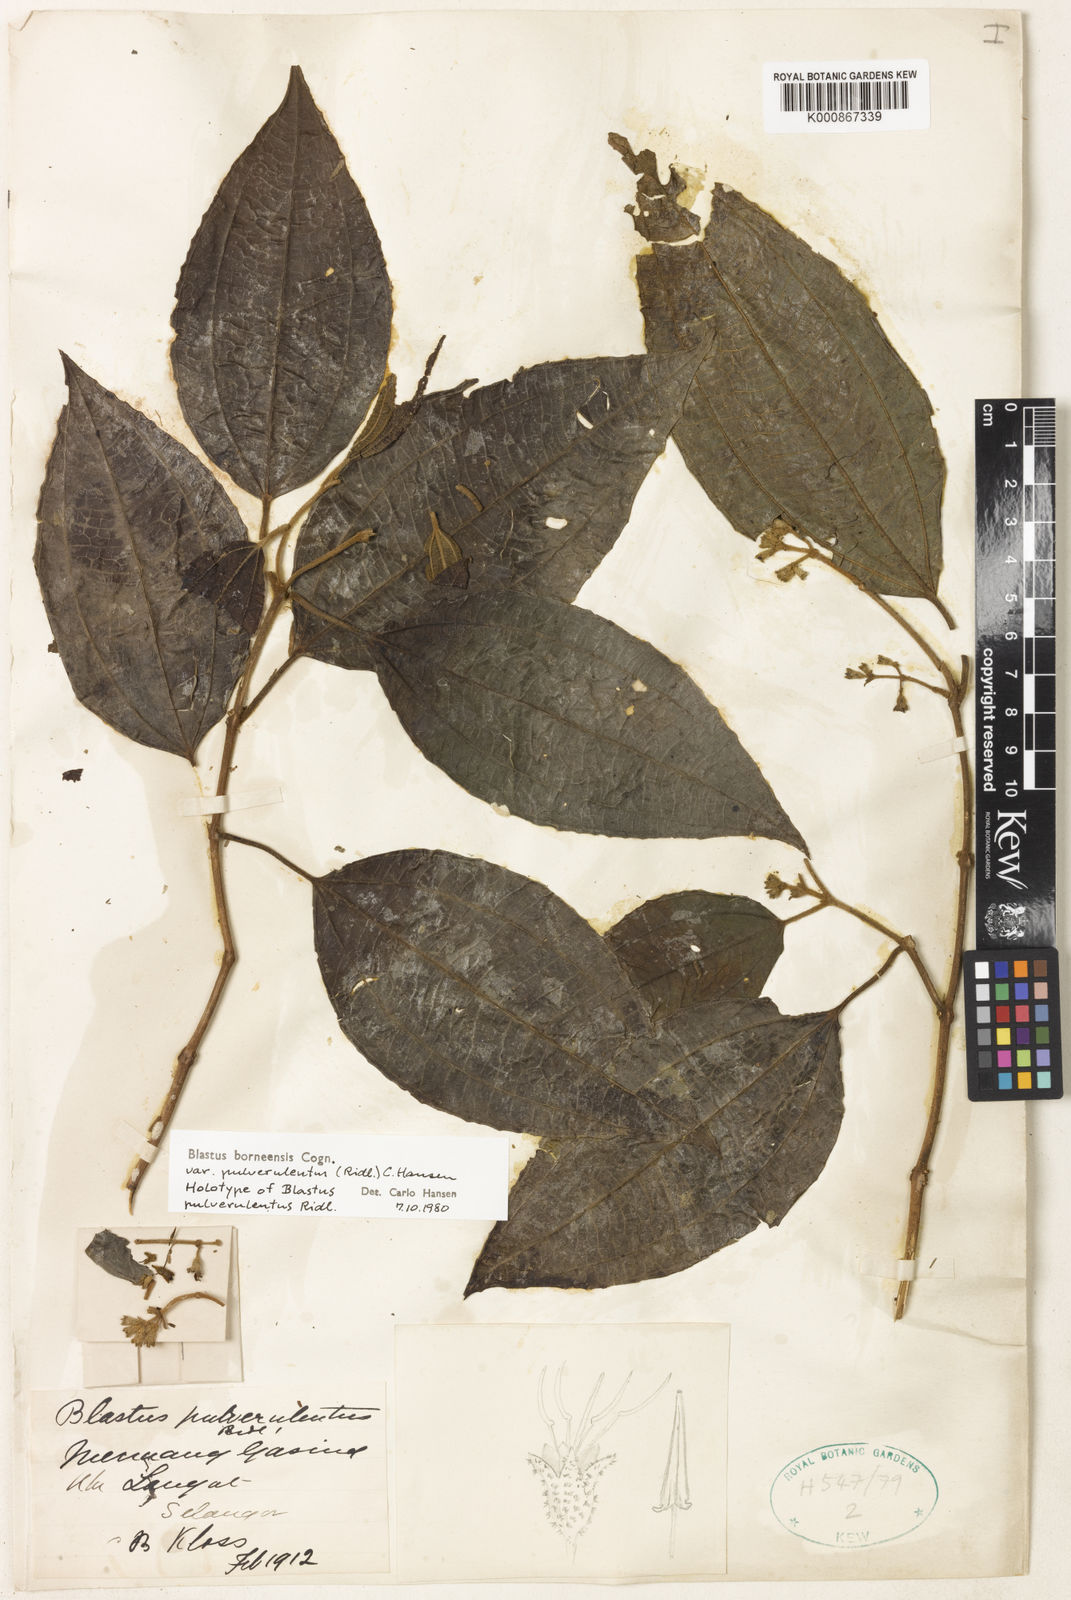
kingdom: Plantae
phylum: Tracheophyta
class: Magnoliopsida
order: Myrtales
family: Melastomataceae
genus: Blastus
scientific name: Blastus borneensis
